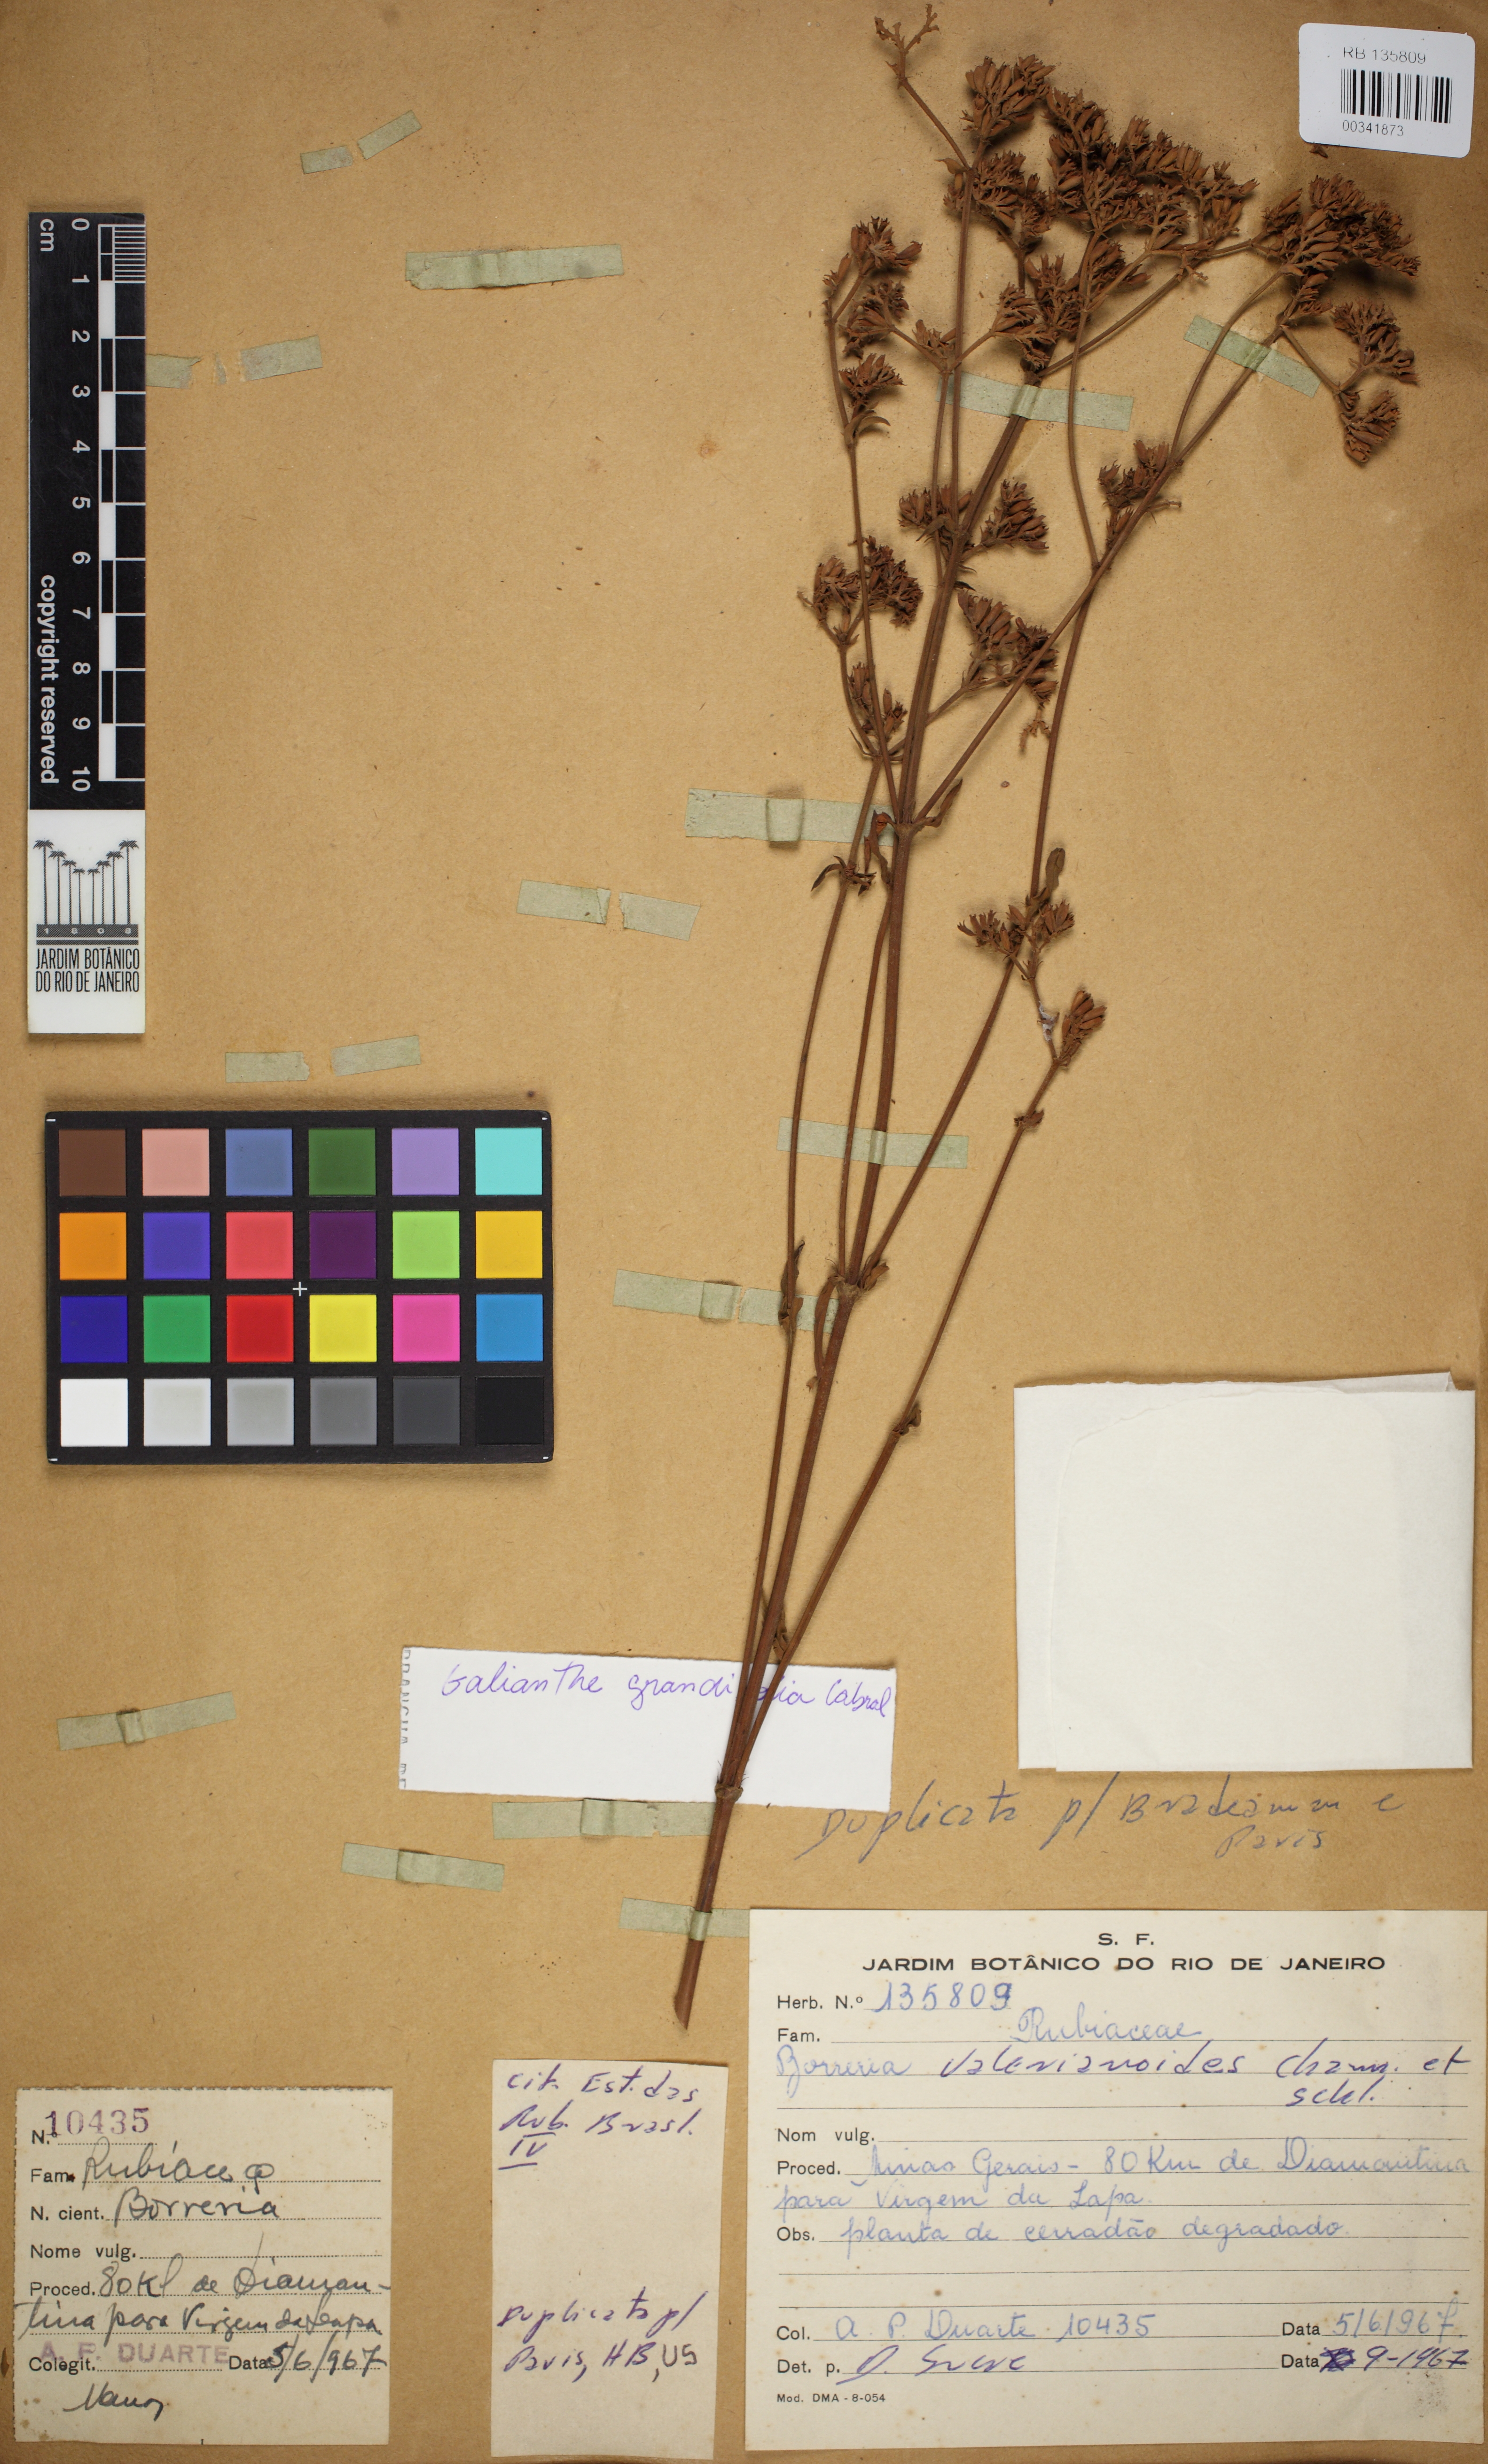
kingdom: Plantae
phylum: Tracheophyta
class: Magnoliopsida
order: Gentianales
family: Rubiaceae
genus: Galianthe
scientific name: Galianthe grandifolia
